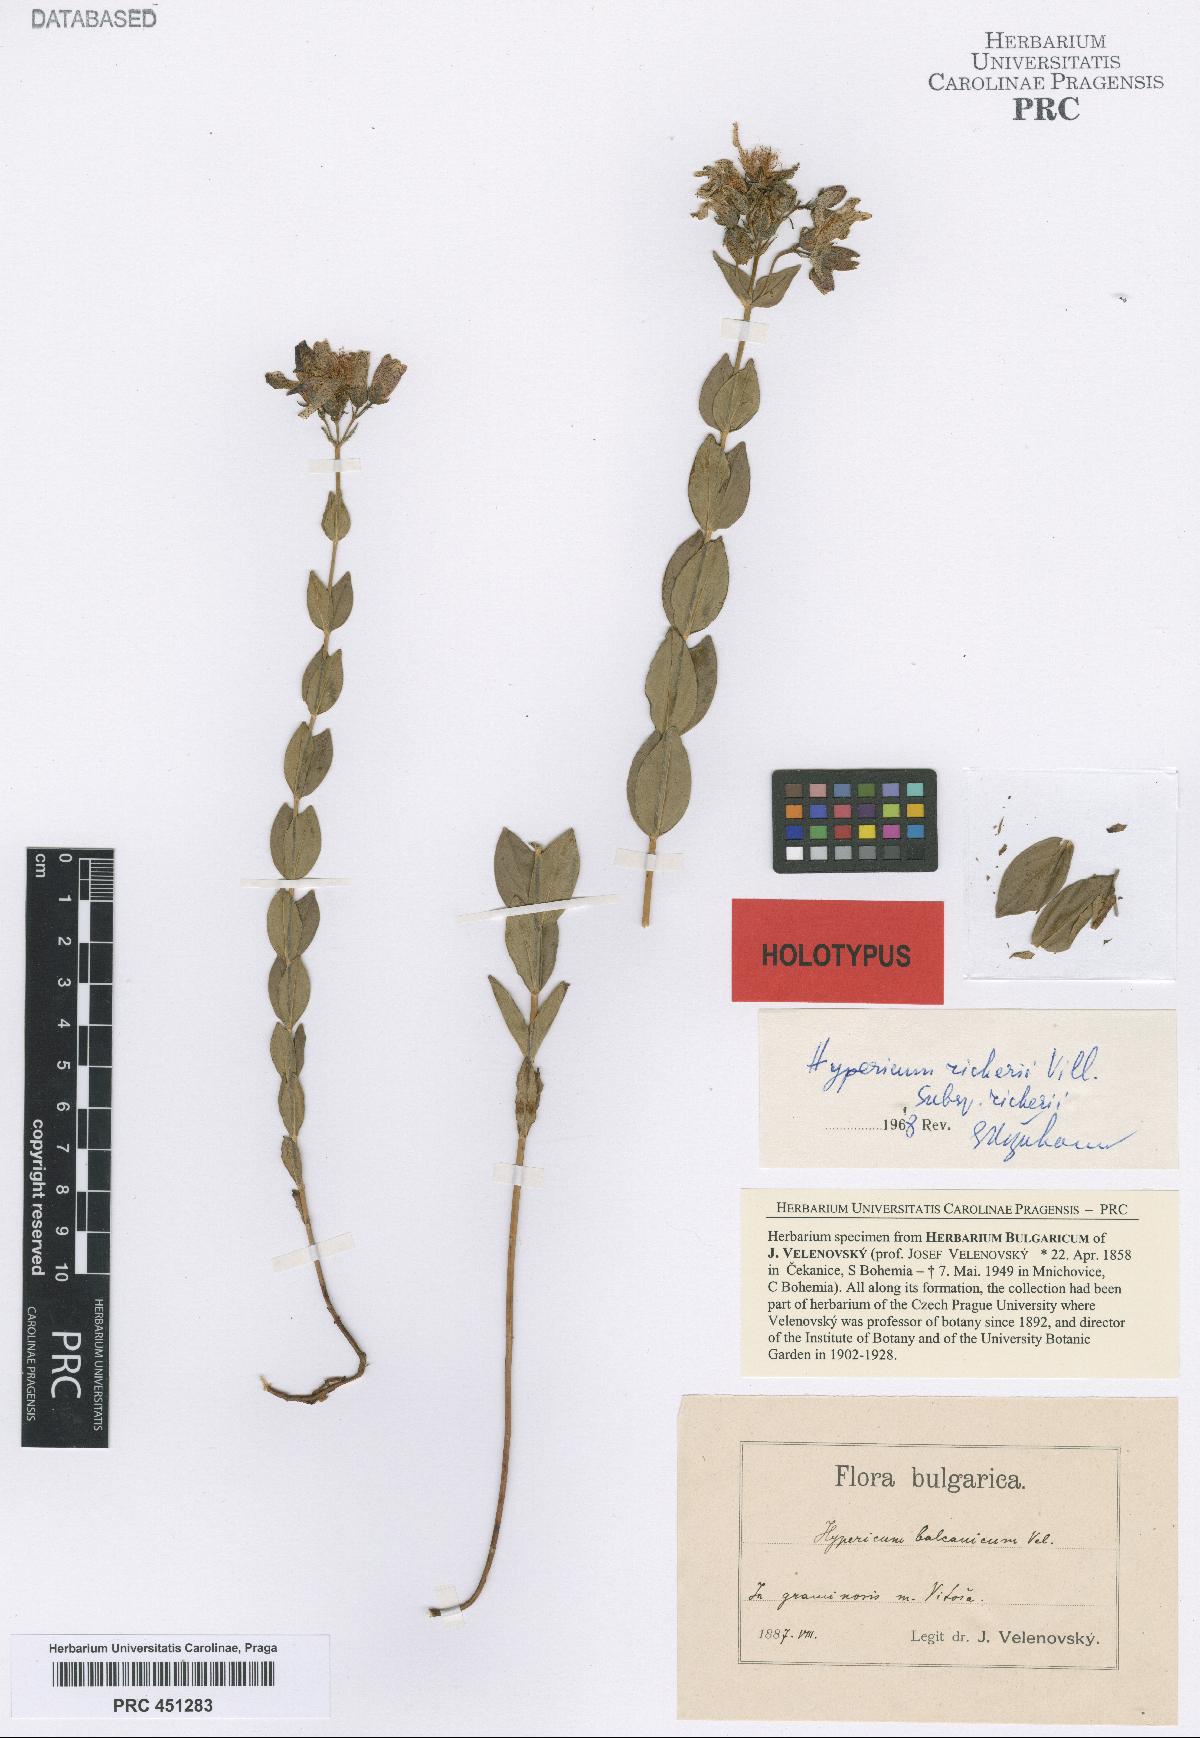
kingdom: Plantae
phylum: Tracheophyta
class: Magnoliopsida
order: Malpighiales
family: Hypericaceae
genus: Hypericum
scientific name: Hypericum richeri
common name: Alpine st john's-wort
